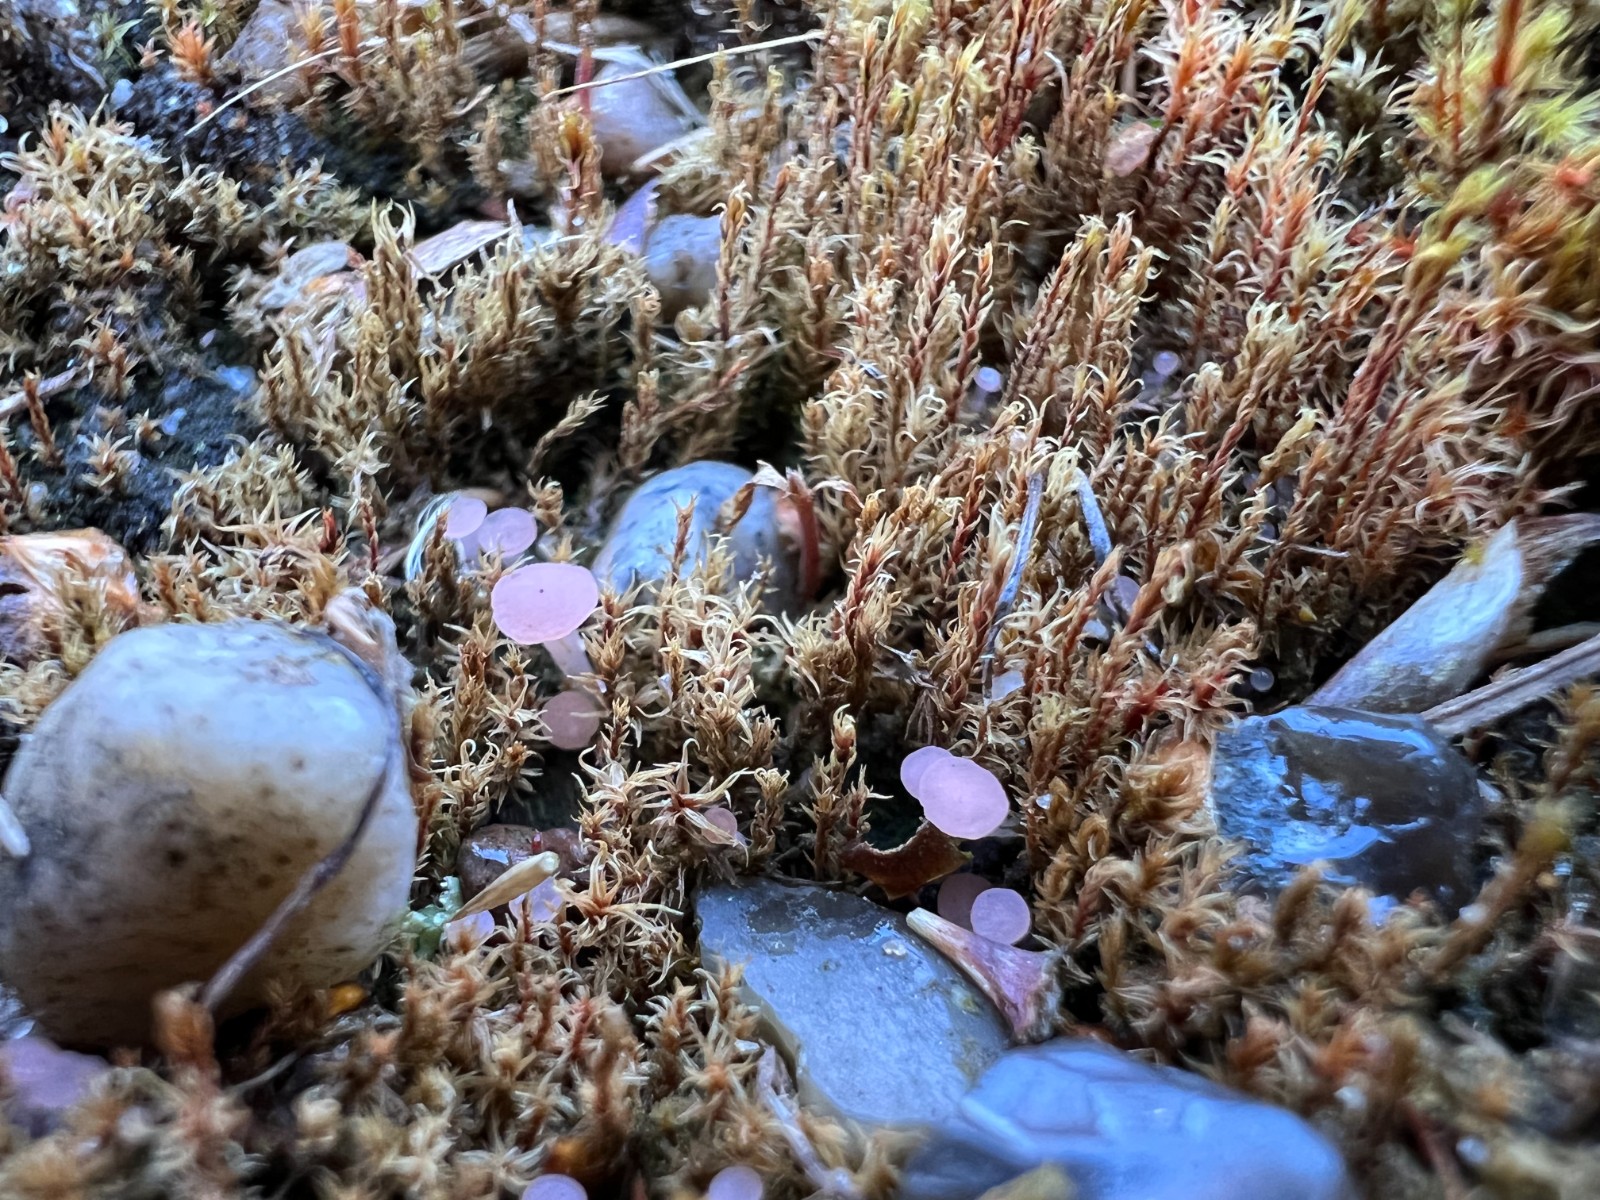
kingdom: Fungi
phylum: Ascomycota
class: Leotiomycetes
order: Helotiales
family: Hyaloscyphaceae
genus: Roseodiscus
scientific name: Roseodiscus formosus
